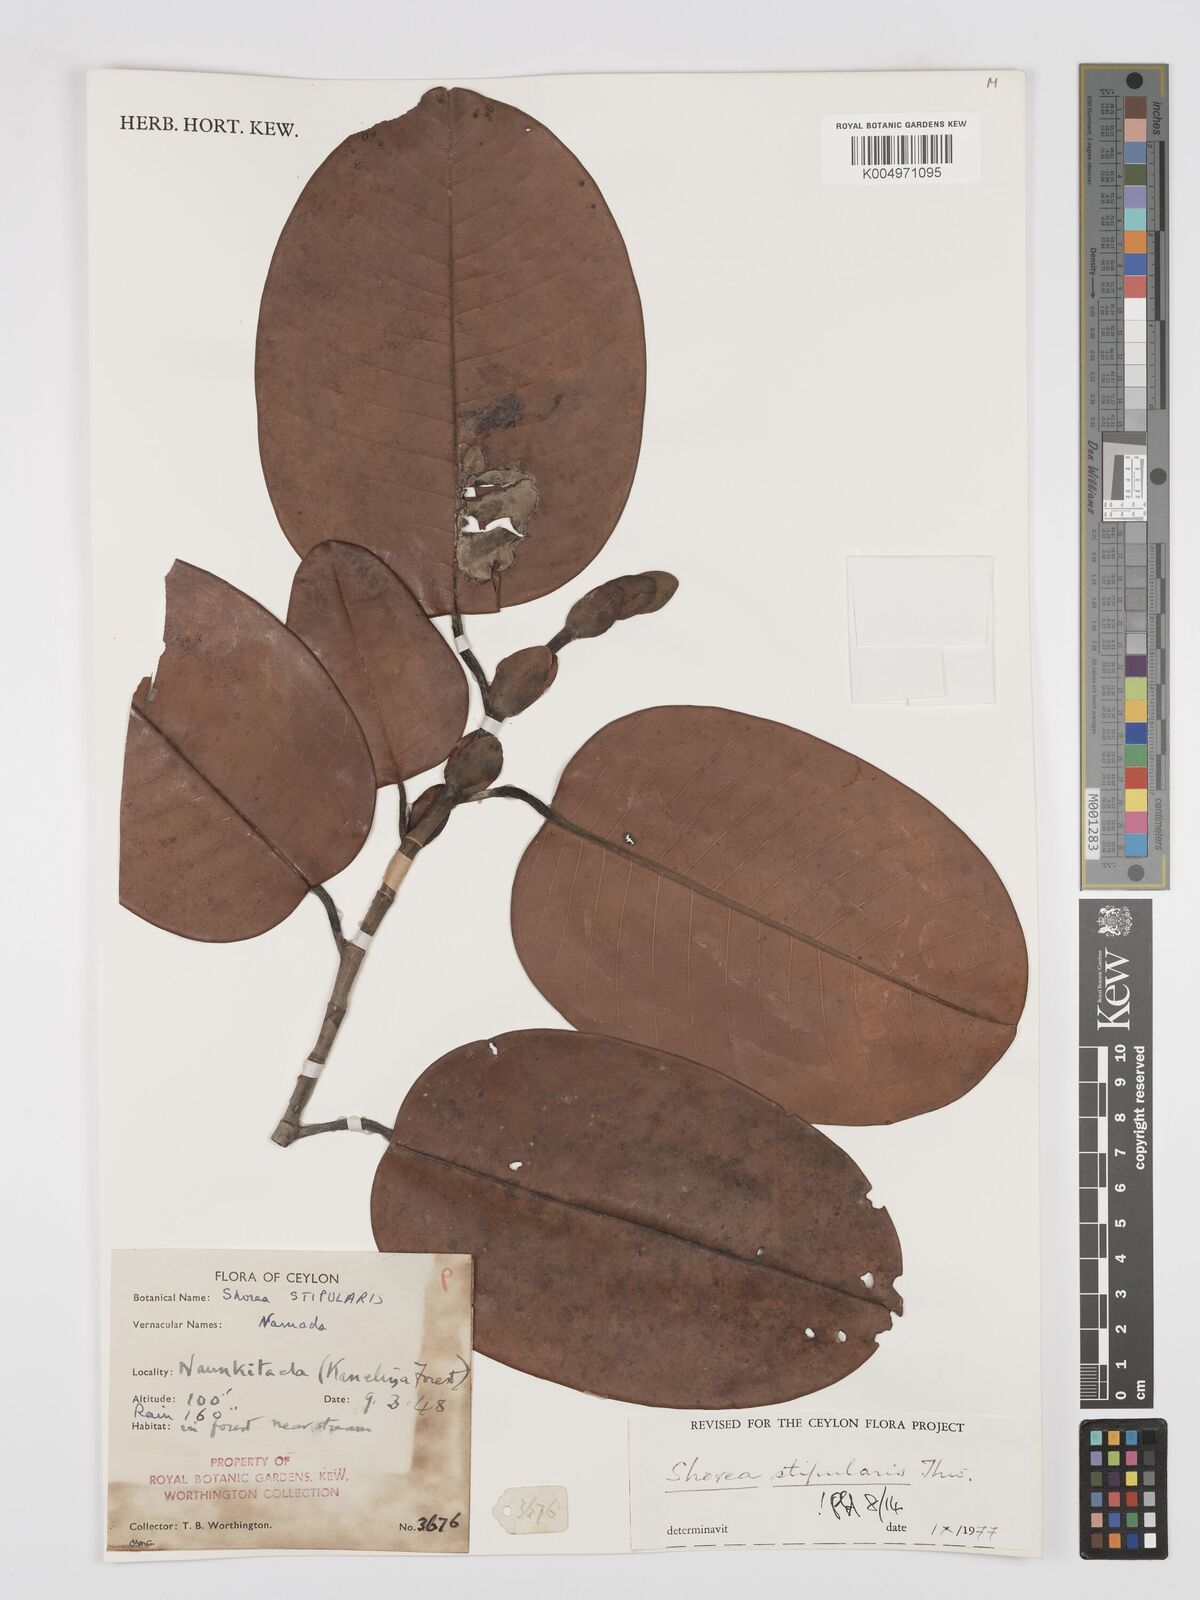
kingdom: Plantae
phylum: Tracheophyta
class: Magnoliopsida
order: Malvales
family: Dipterocarpaceae
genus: Anthoshorea
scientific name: Anthoshorea stipularis
